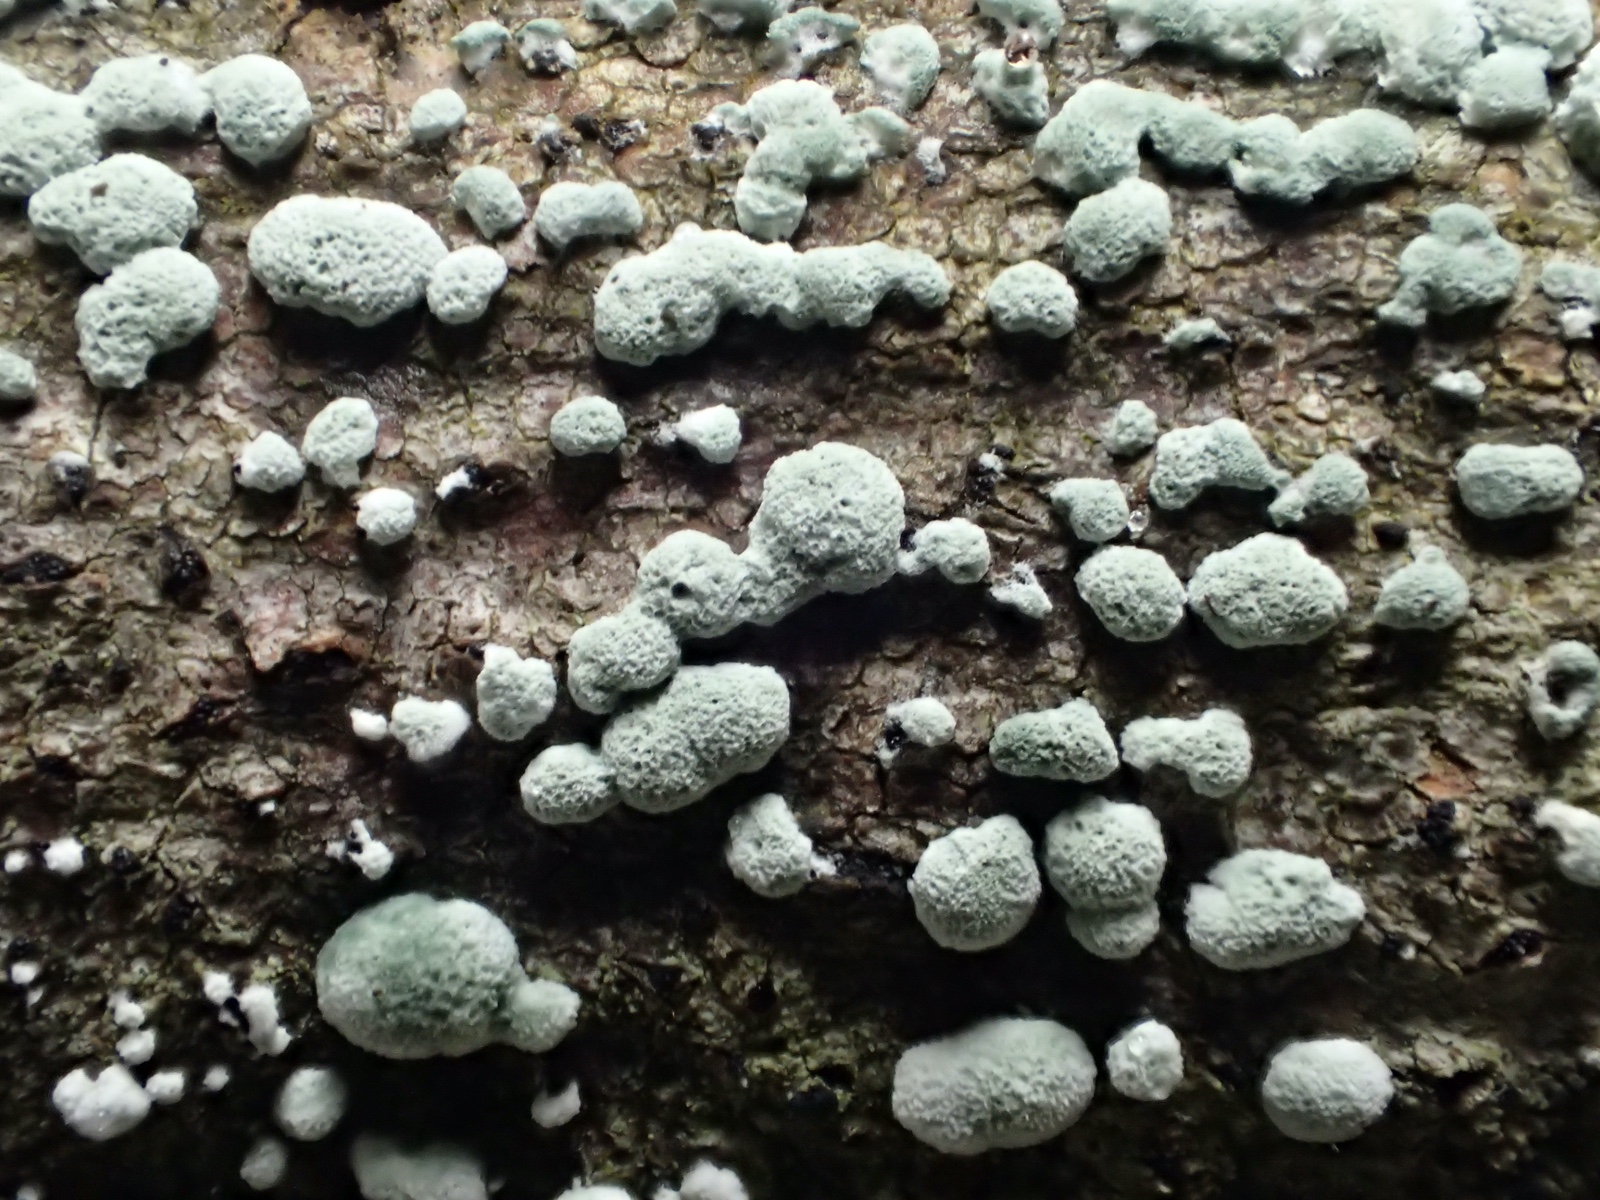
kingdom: Fungi
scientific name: Fungi
